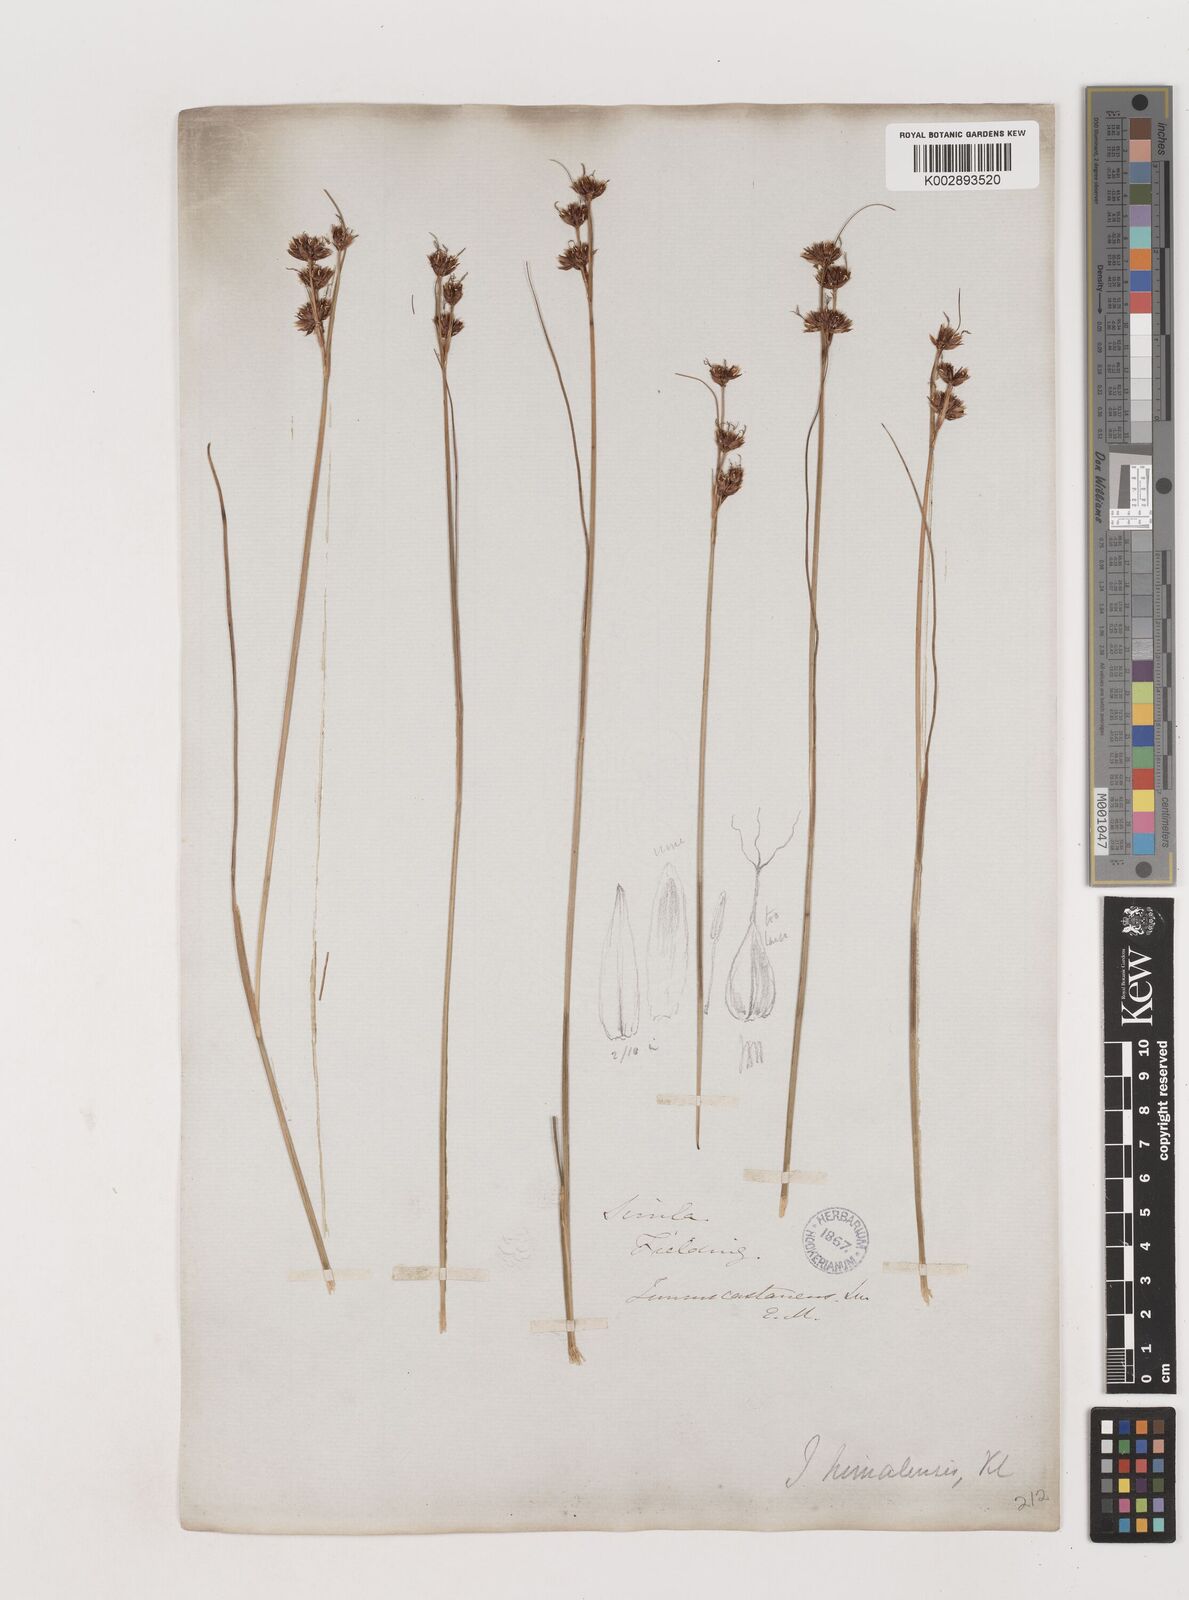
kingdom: Plantae
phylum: Tracheophyta
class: Liliopsida
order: Poales
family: Juncaceae
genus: Juncus
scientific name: Juncus himalensis
